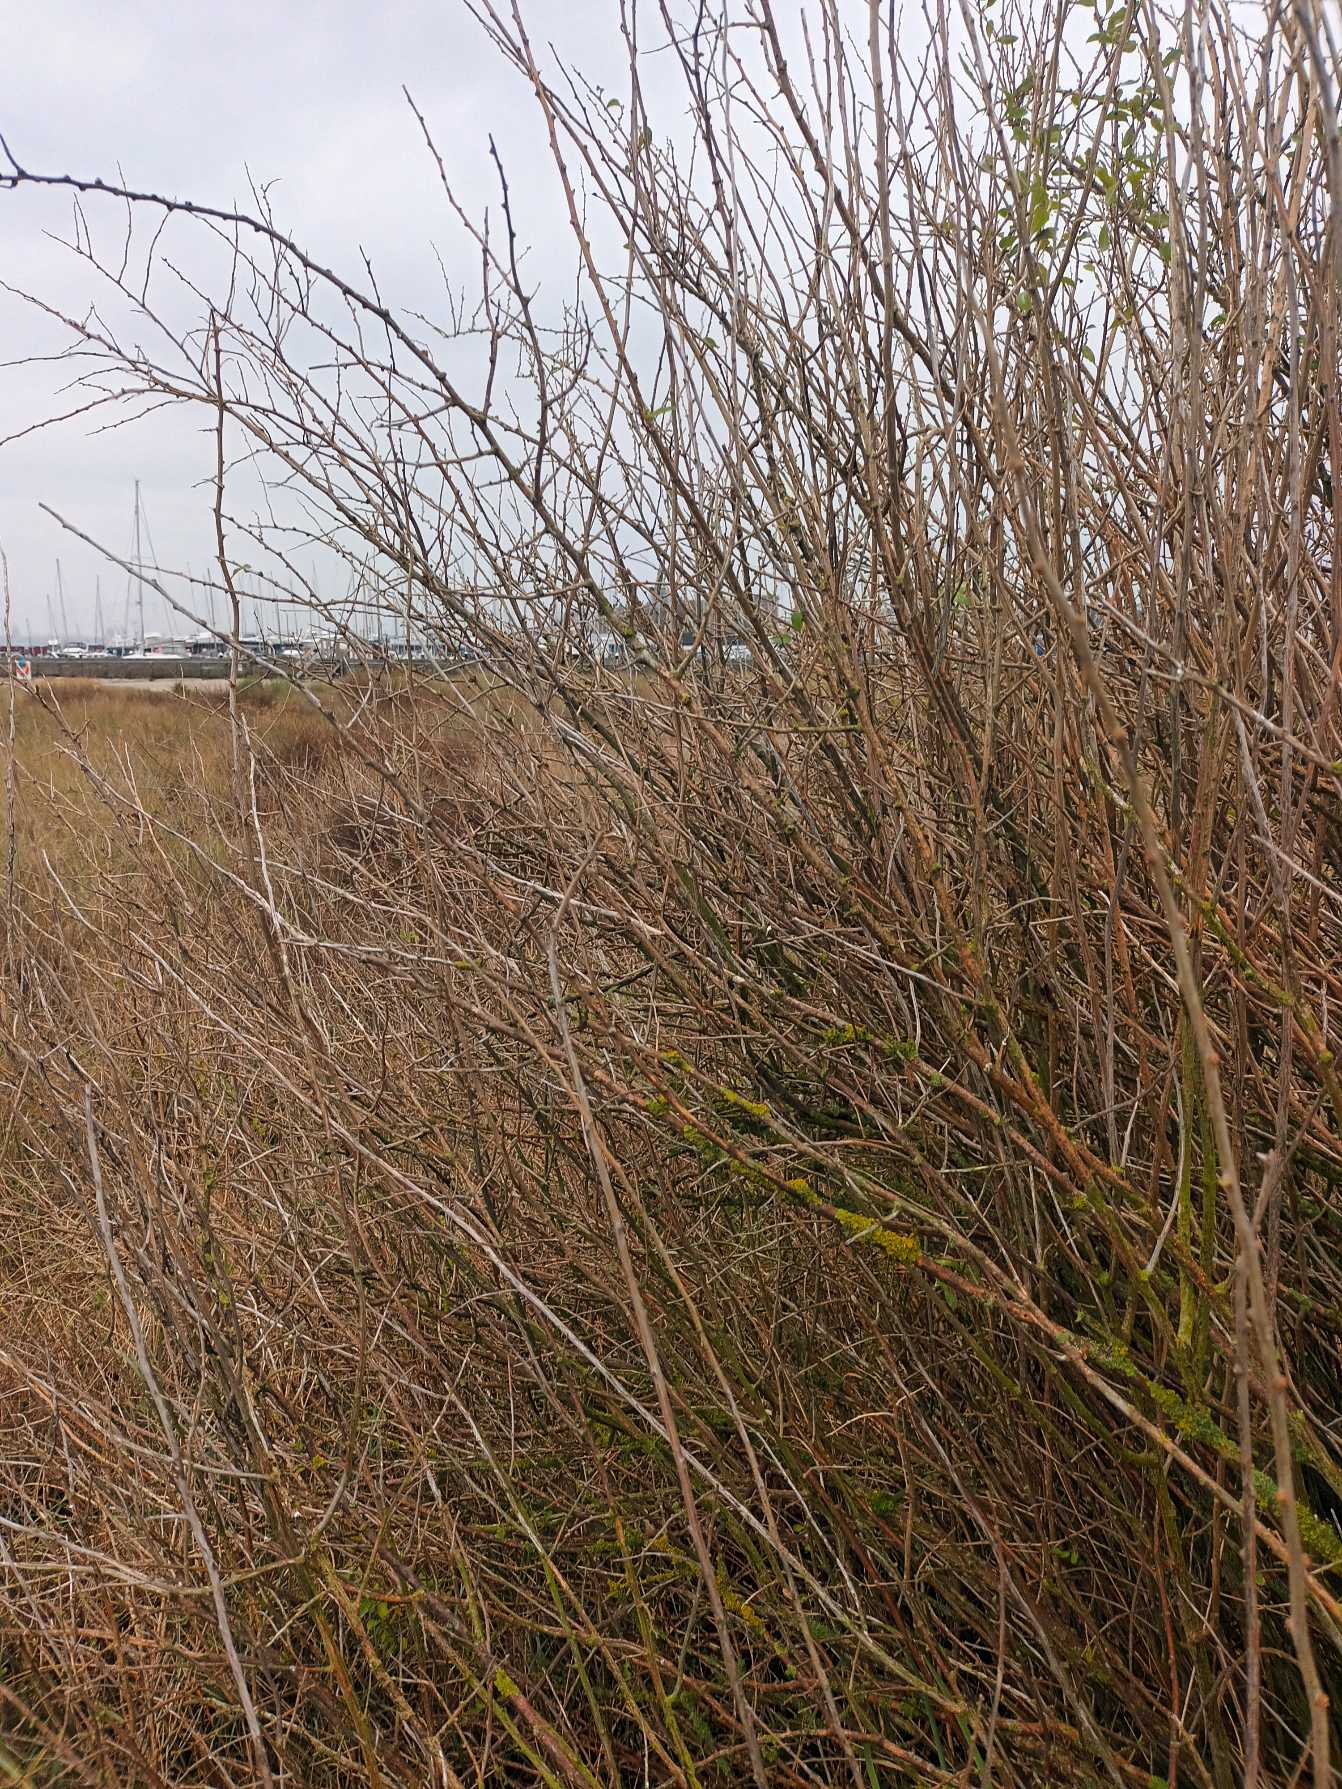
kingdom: Plantae
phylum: Tracheophyta
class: Magnoliopsida
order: Solanales
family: Solanaceae
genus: Lycium
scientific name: Lycium barbarum
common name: Bukketorn
